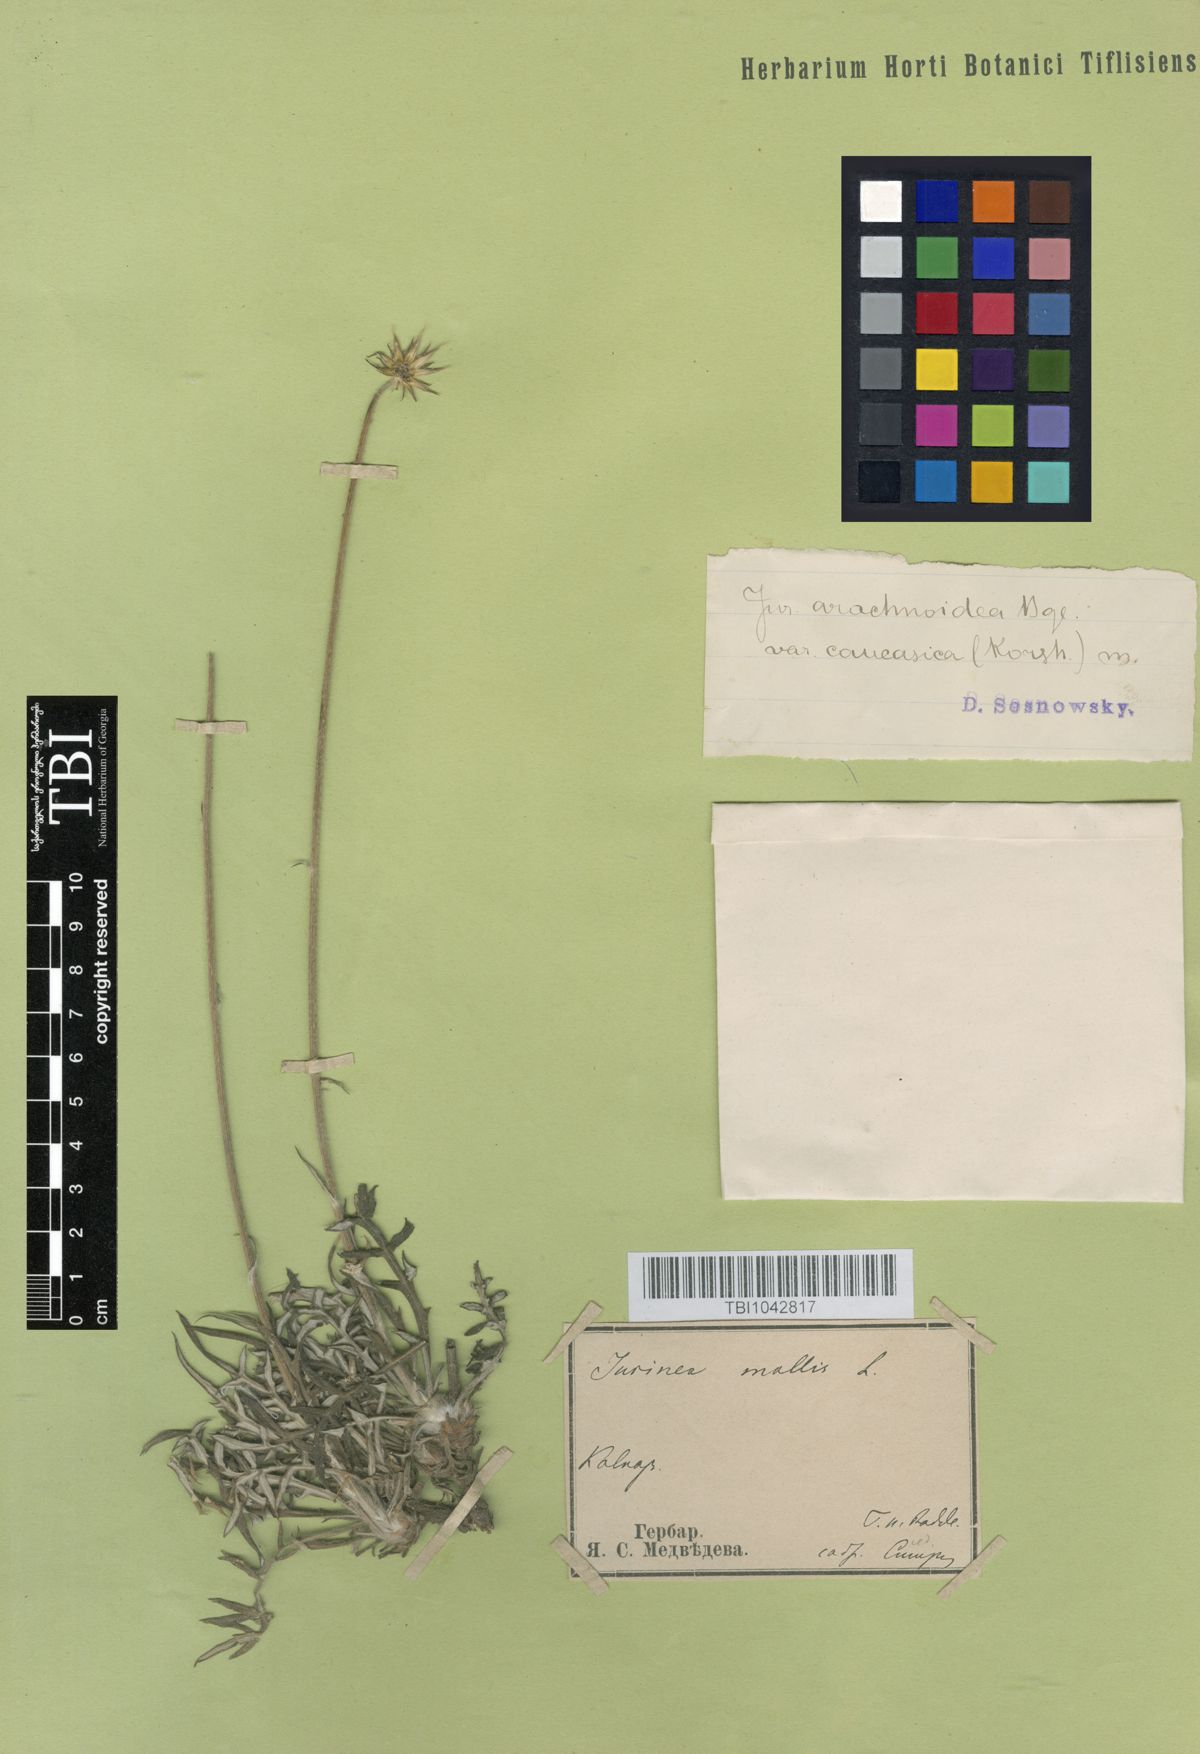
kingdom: Plantae
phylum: Tracheophyta
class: Magnoliopsida
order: Asterales
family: Asteraceae
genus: Jurinea
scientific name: Jurinea blanda
